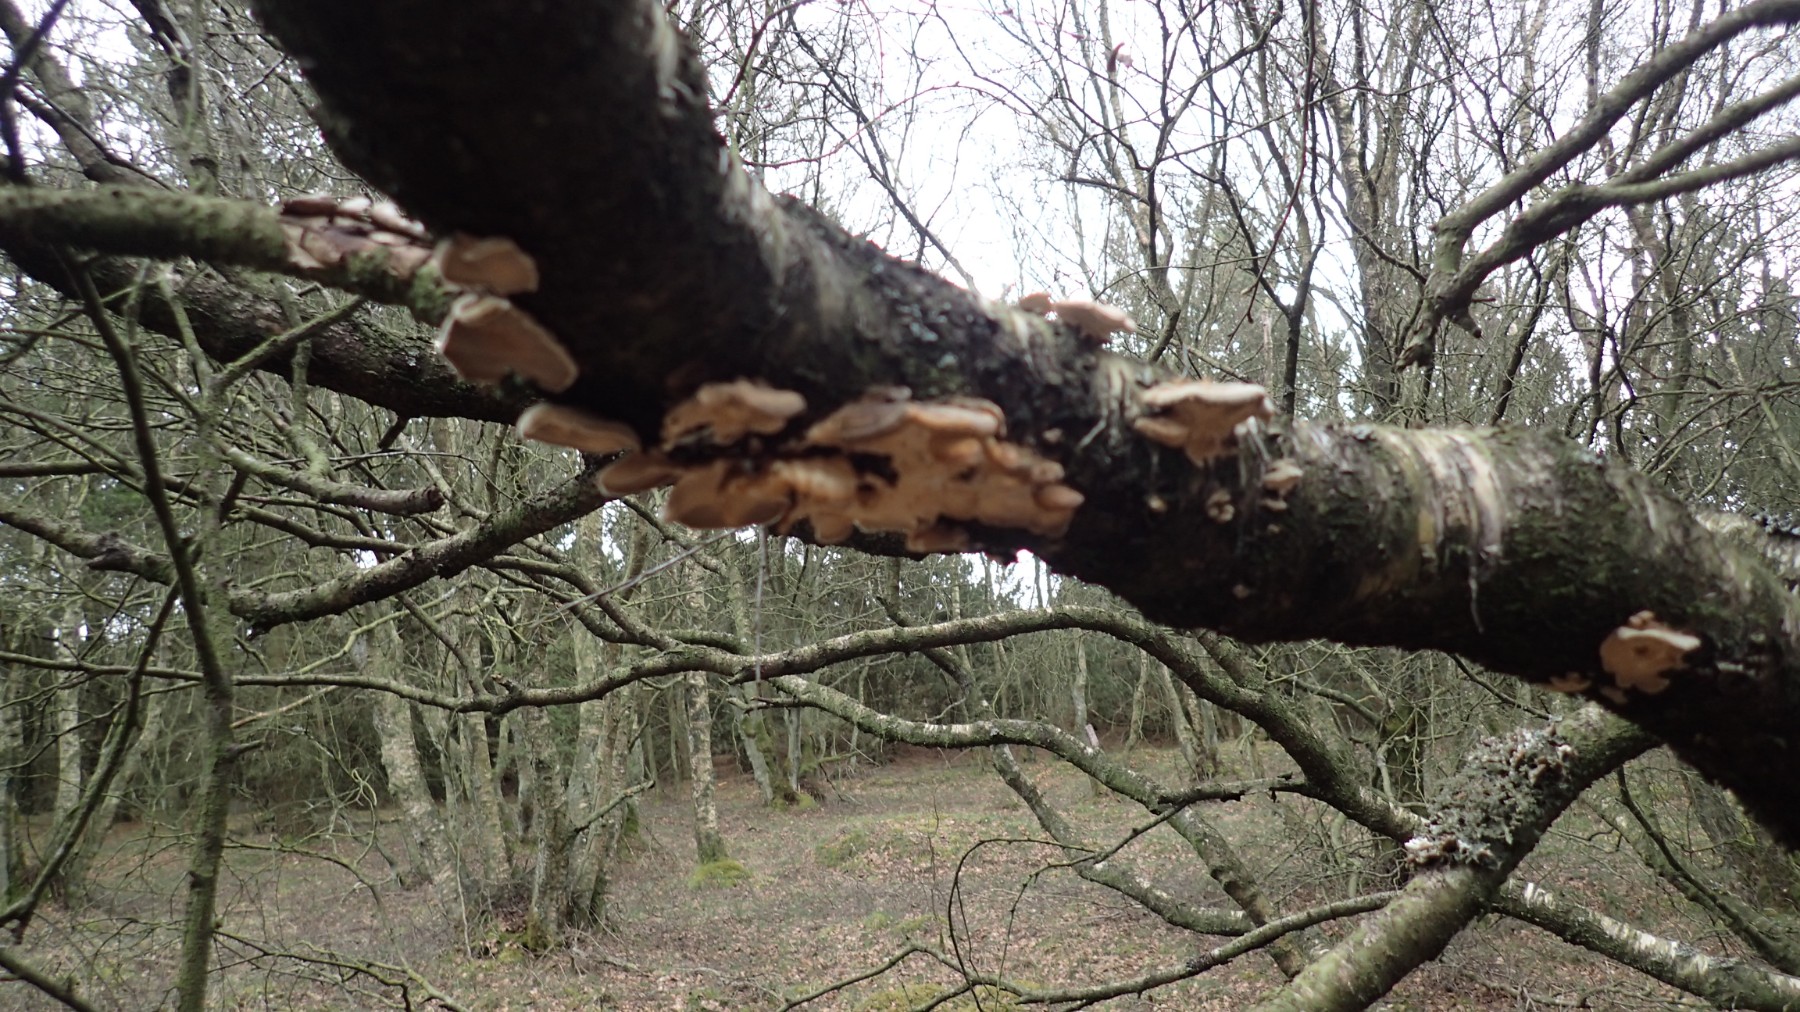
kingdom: Fungi
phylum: Basidiomycota
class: Agaricomycetes
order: Polyporales
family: Polyporaceae
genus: Trametes
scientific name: Trametes
